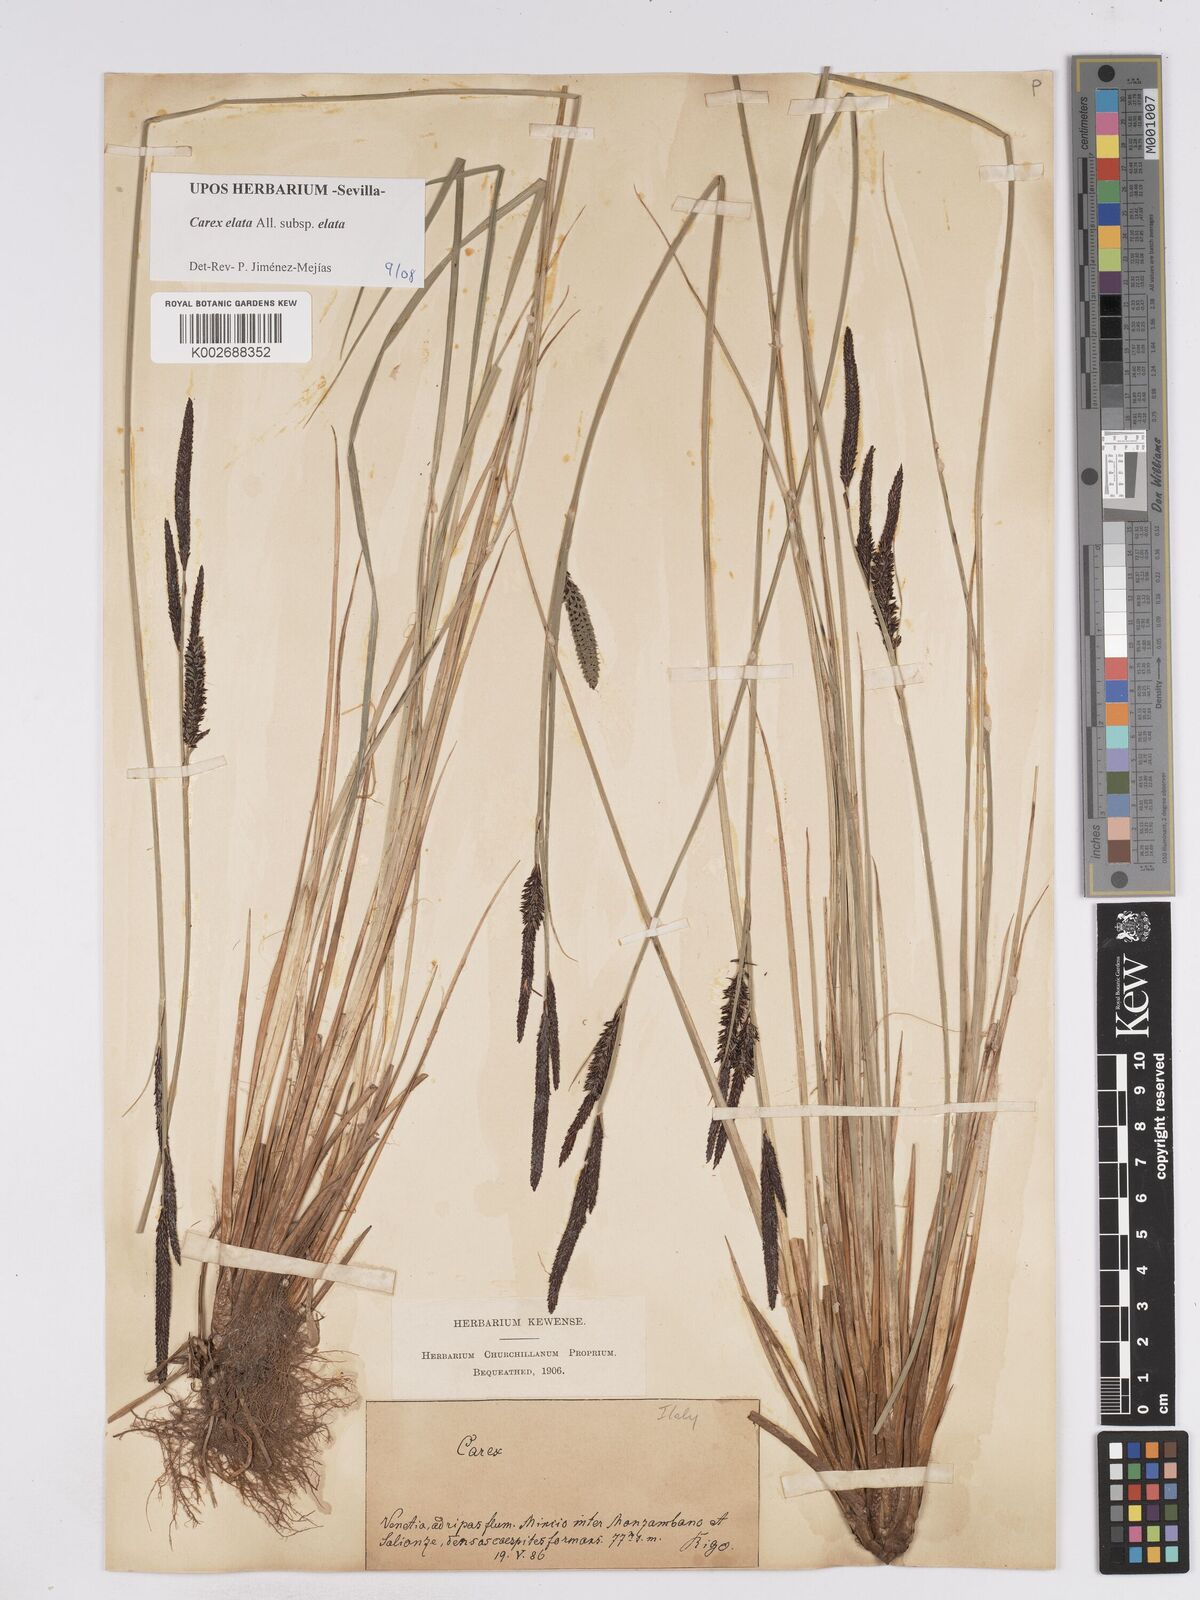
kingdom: Plantae
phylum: Tracheophyta
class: Liliopsida
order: Poales
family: Cyperaceae
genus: Carex
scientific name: Carex elata
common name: Tufted sedge
